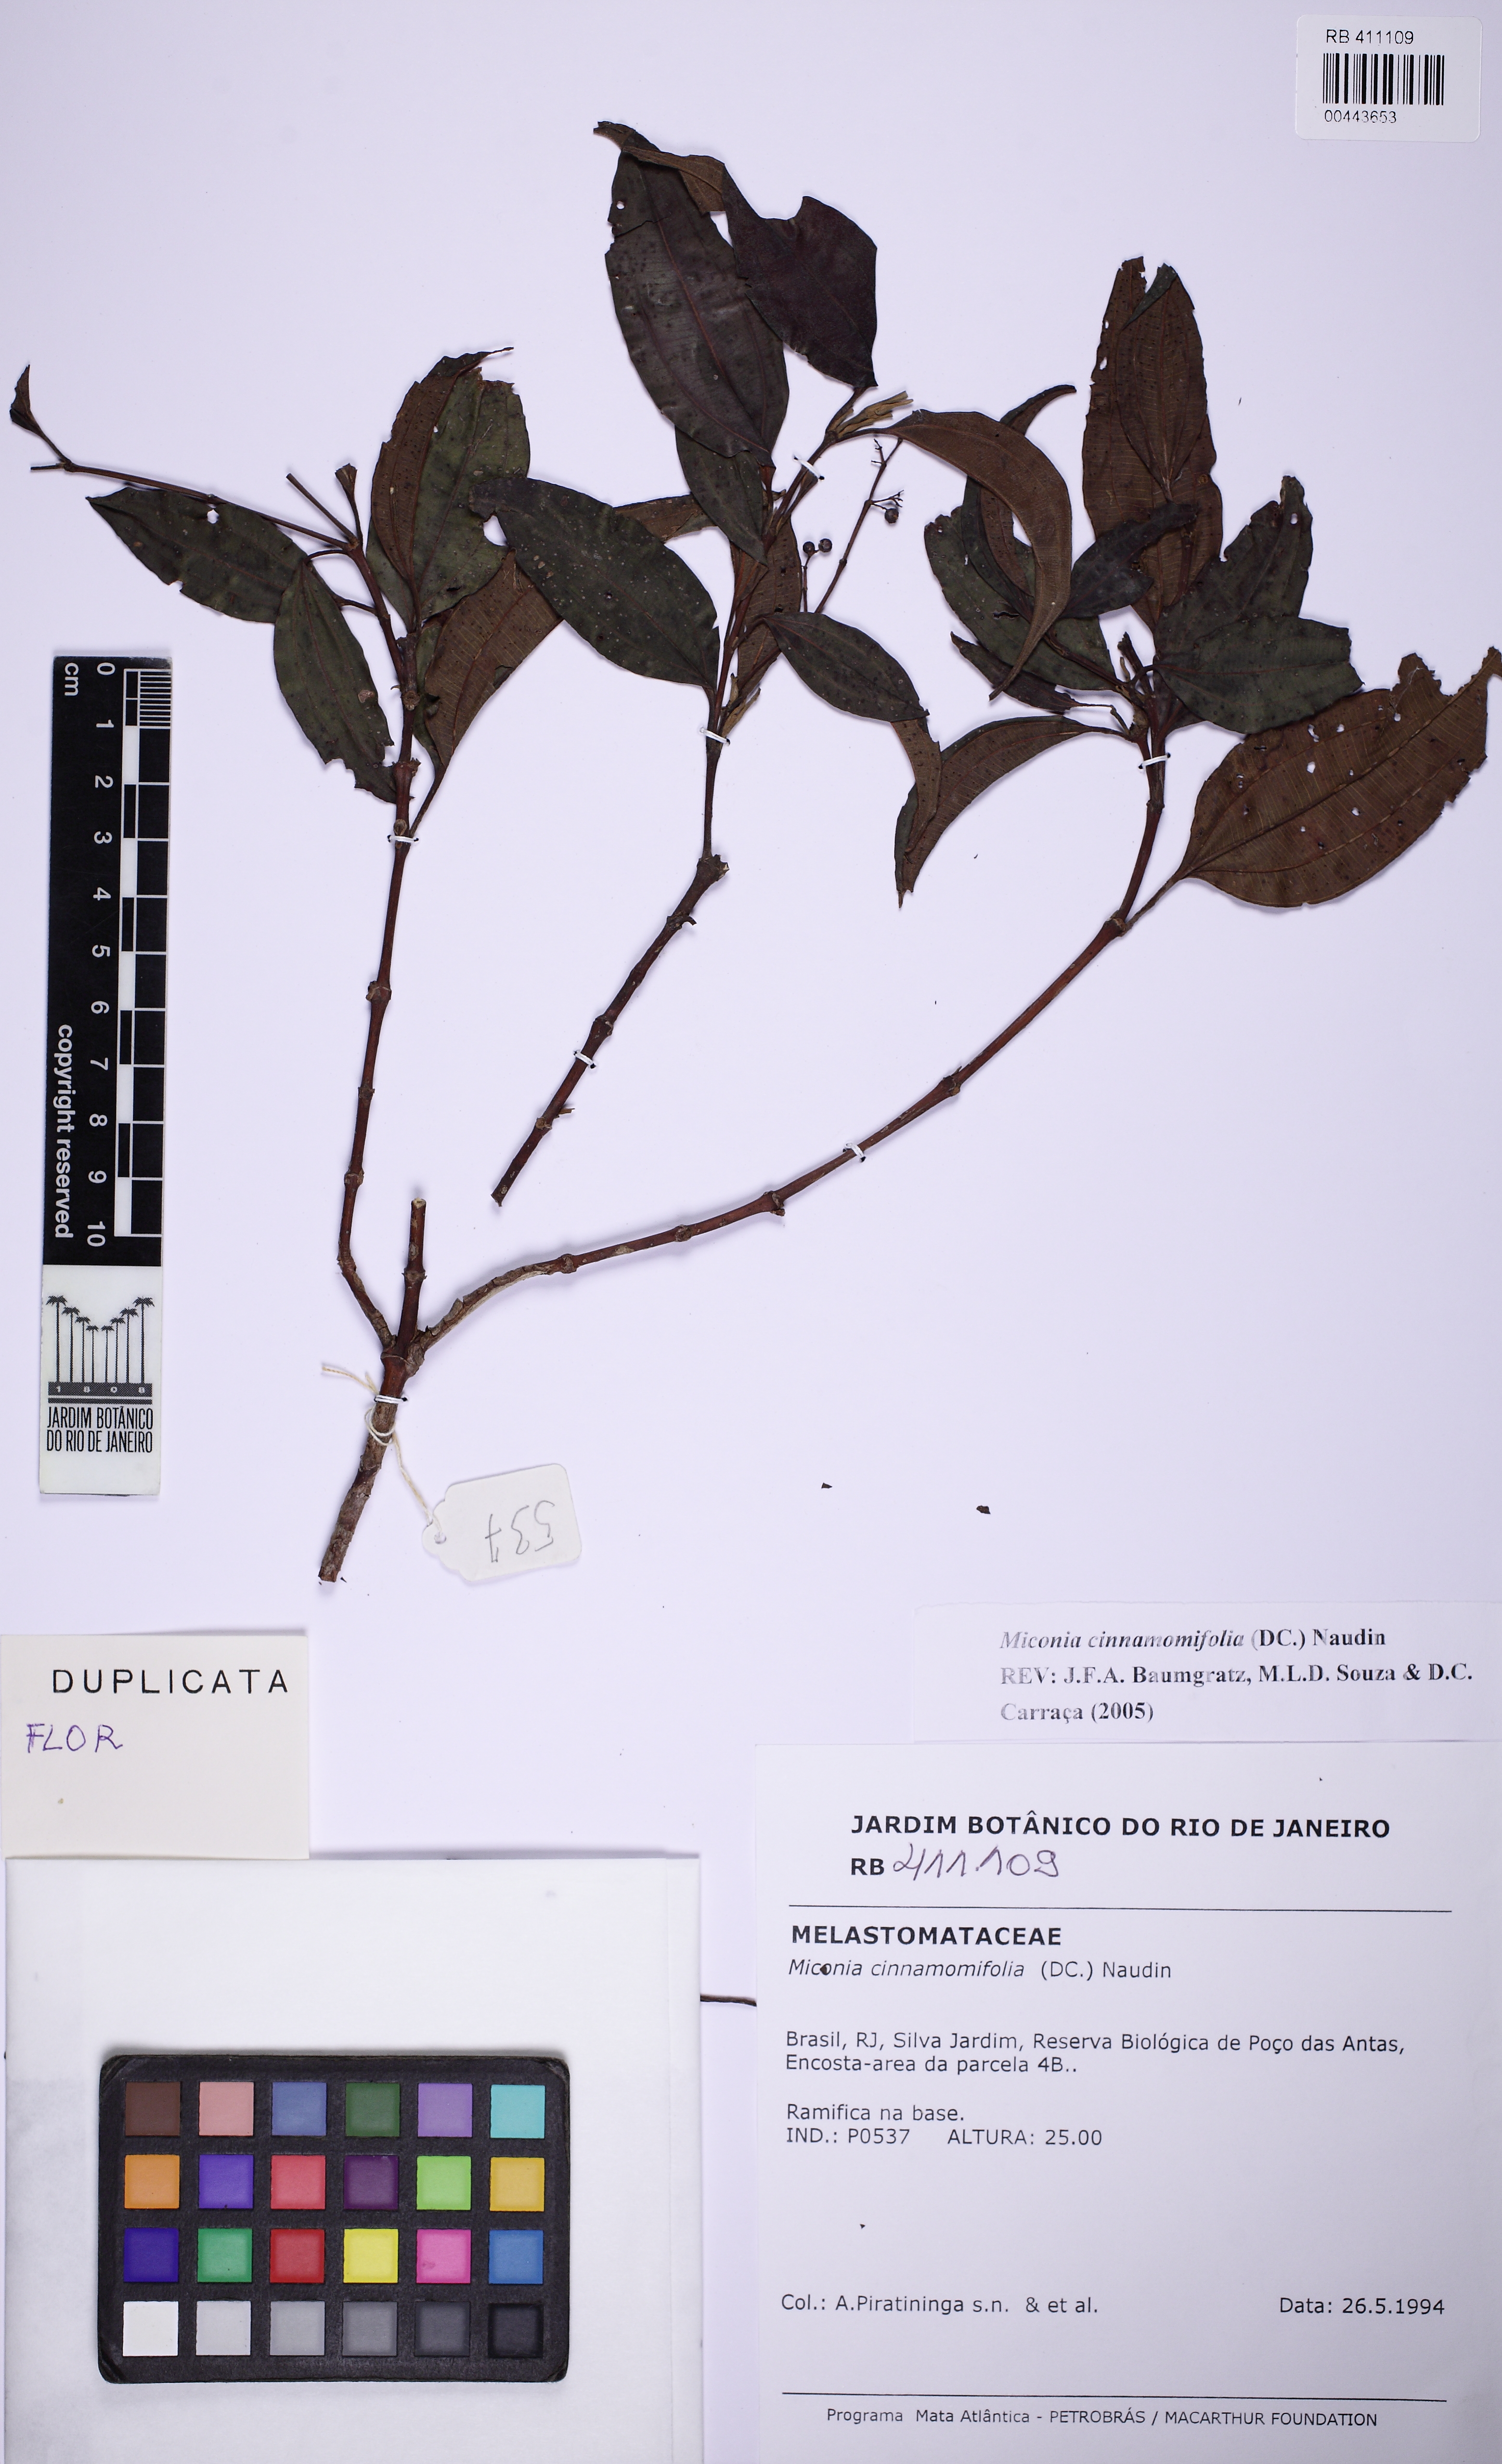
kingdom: Plantae
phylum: Tracheophyta
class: Magnoliopsida
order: Myrtales
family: Melastomataceae
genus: Miconia
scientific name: Miconia cinnamomifolia
